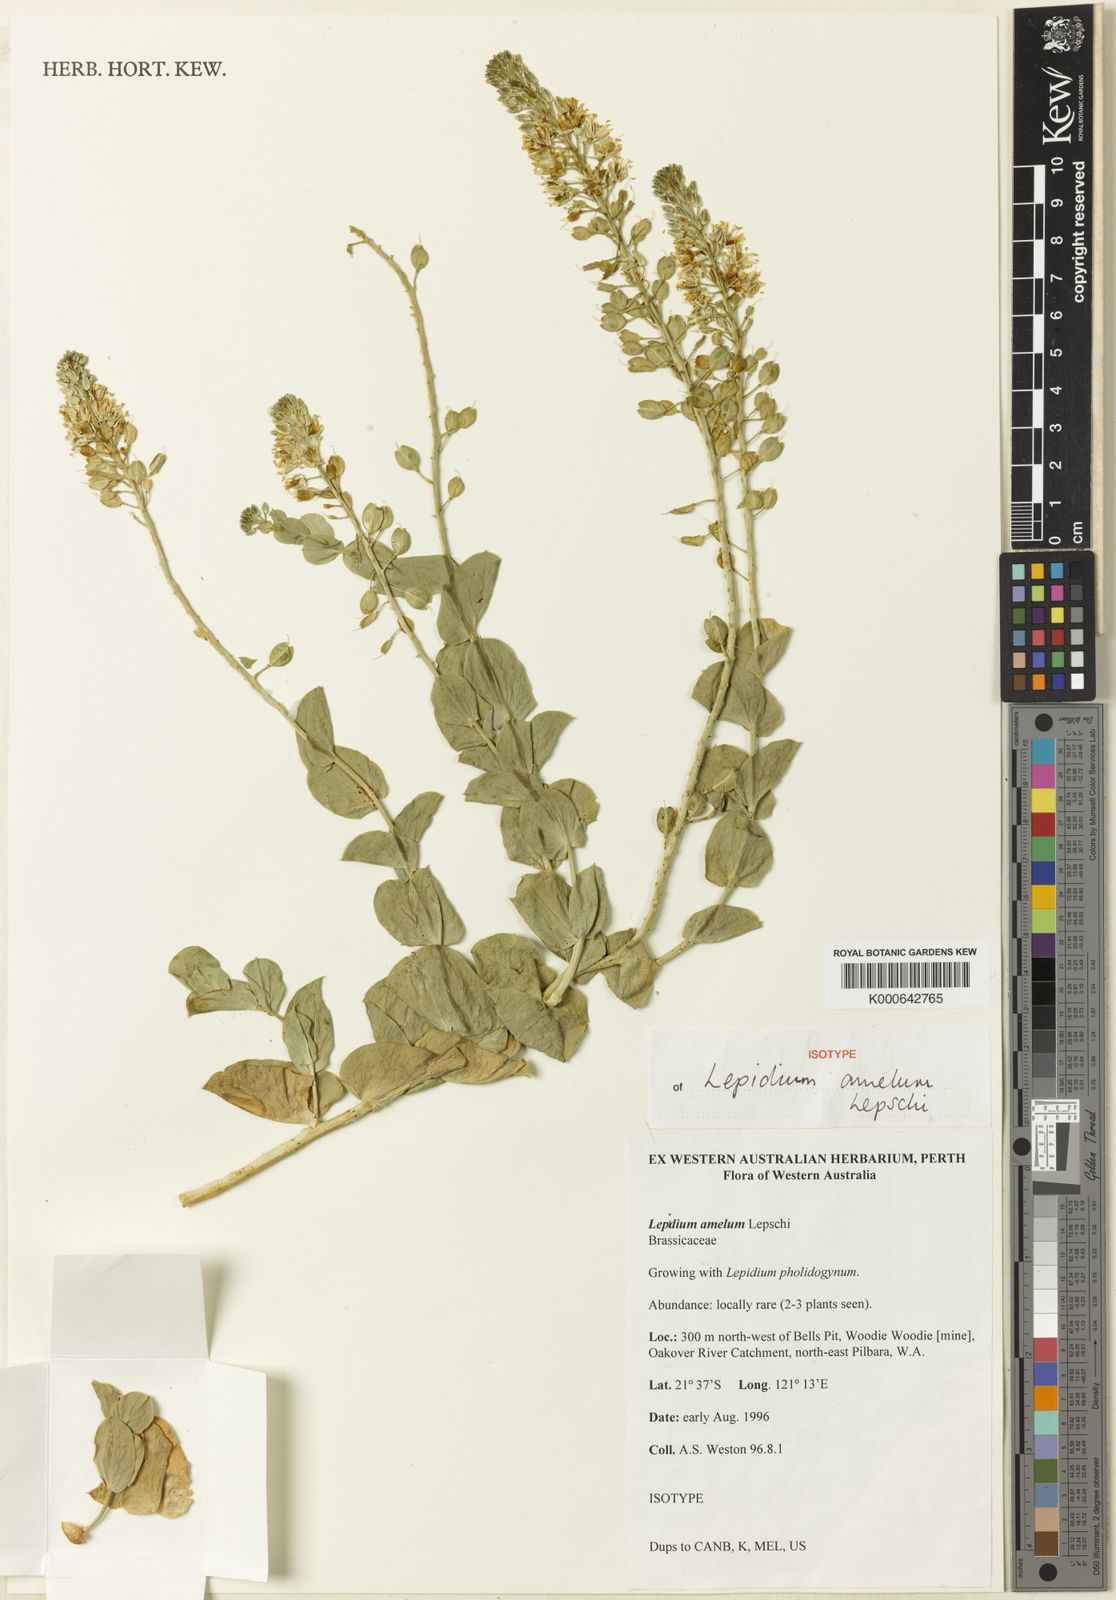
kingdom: Plantae
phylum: Tracheophyta
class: Magnoliopsida
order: Brassicales
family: Brassicaceae
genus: Lepidium
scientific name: Lepidium amelum
